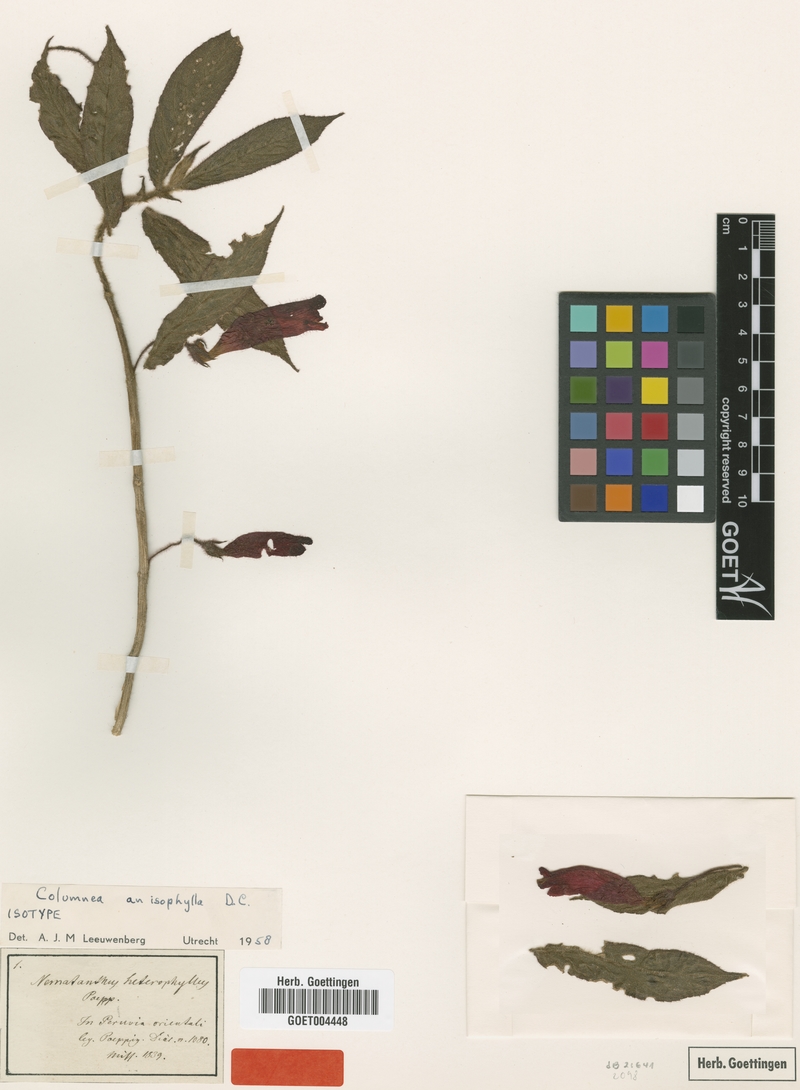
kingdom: Plantae
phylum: Tracheophyta
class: Magnoliopsida
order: Lamiales
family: Gesneriaceae
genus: Columnea
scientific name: Columnea anisophylla
